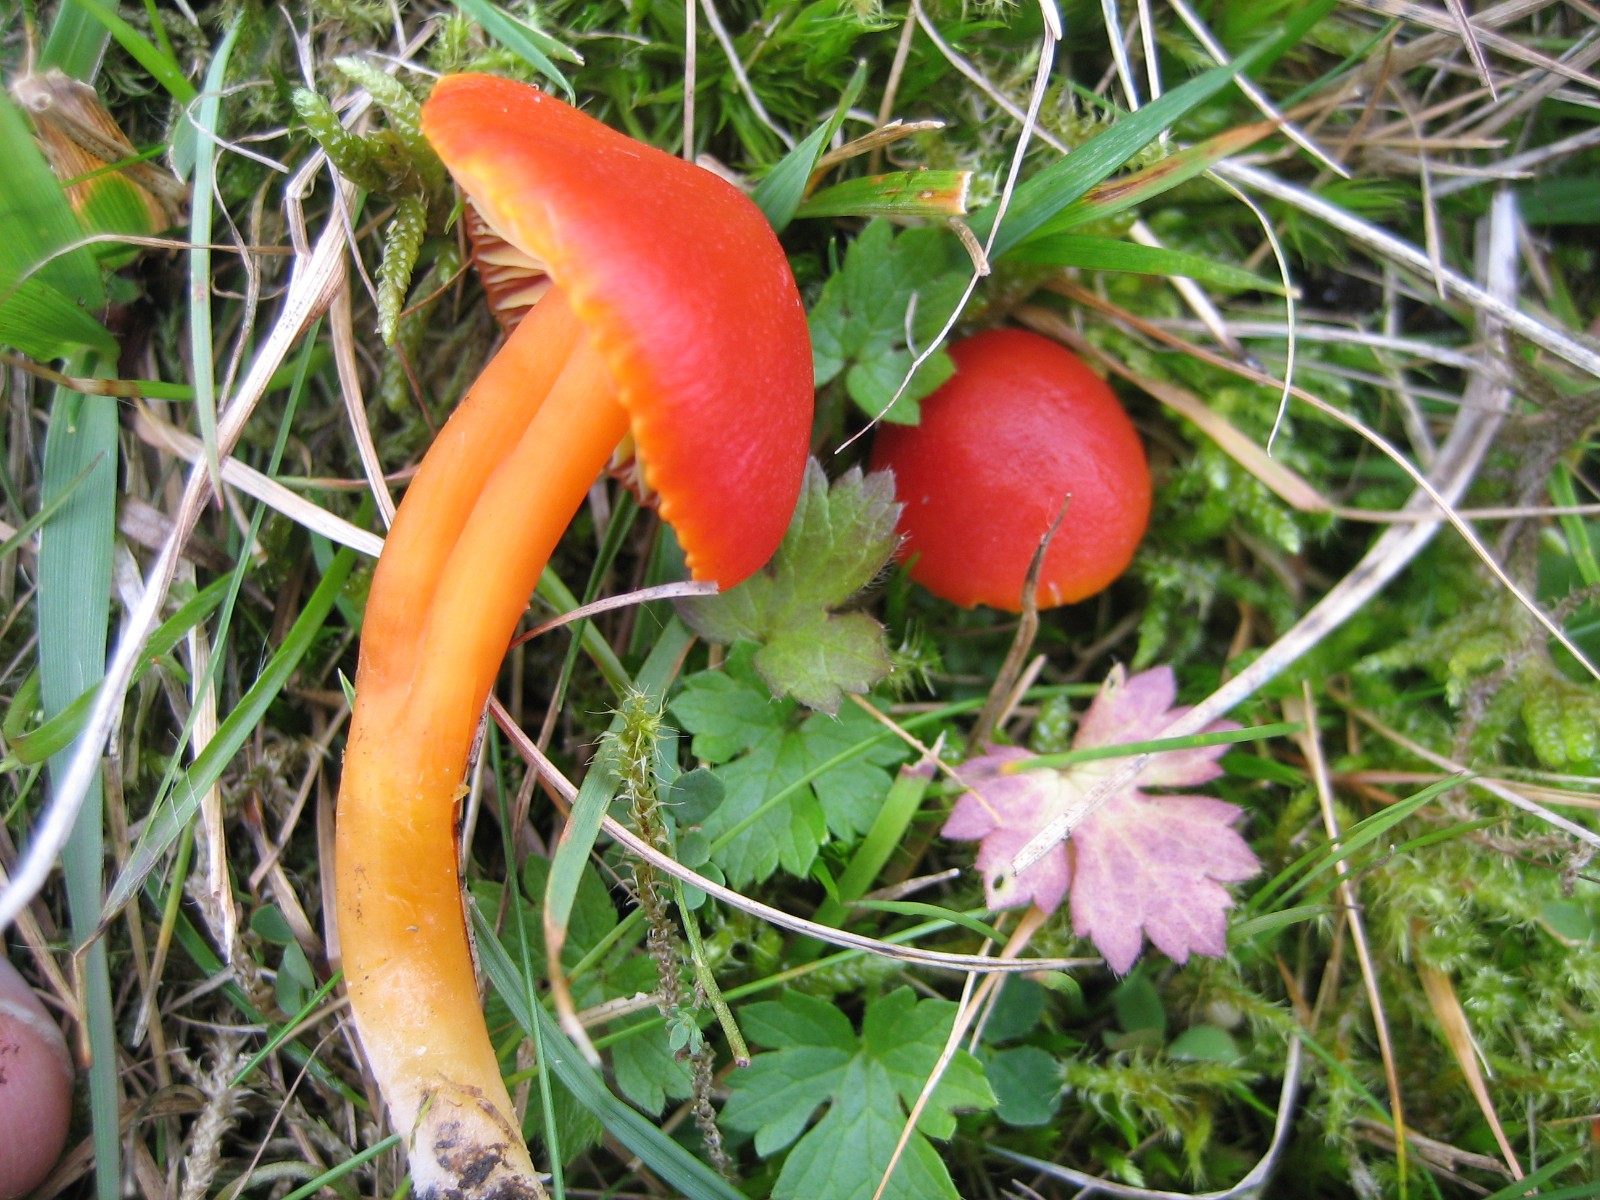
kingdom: Fungi
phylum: Basidiomycota
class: Agaricomycetes
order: Agaricales
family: Hygrophoraceae
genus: Hygrocybe
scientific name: Hygrocybe reidii
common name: honning-vokshat
